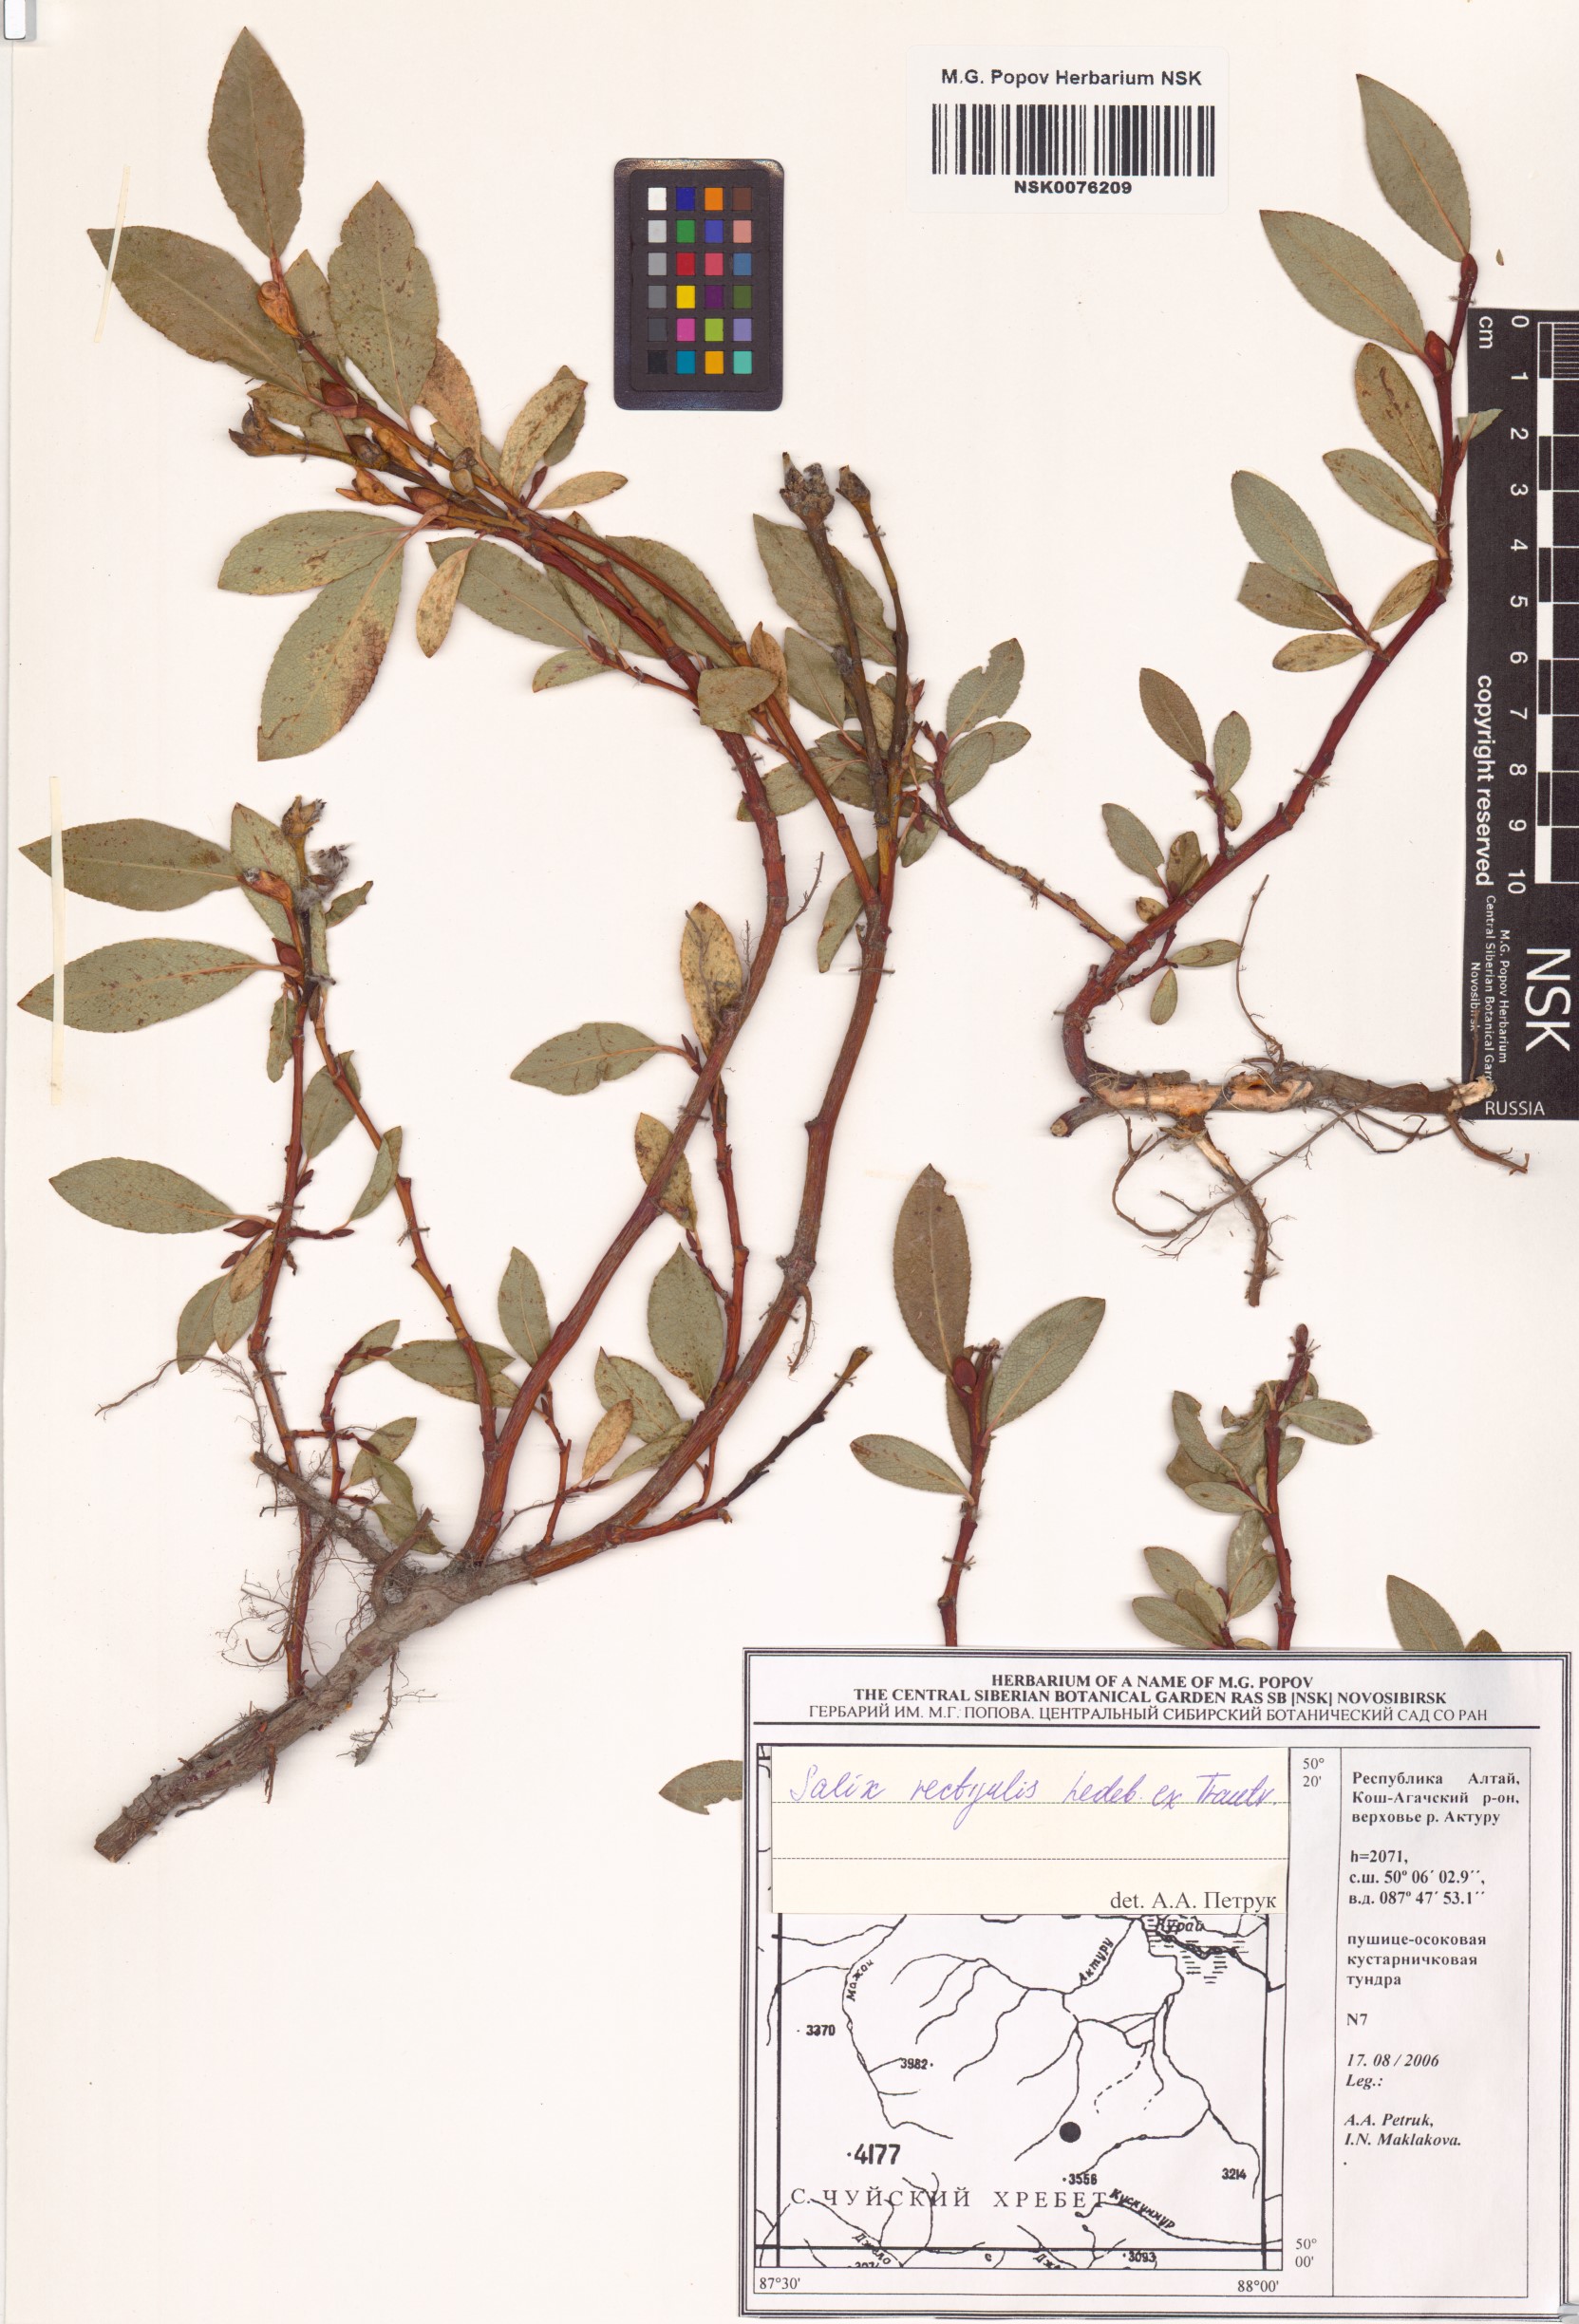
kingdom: Plantae
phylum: Tracheophyta
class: Magnoliopsida
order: Malpighiales
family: Salicaceae
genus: Salix
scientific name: Salix rectijulis
